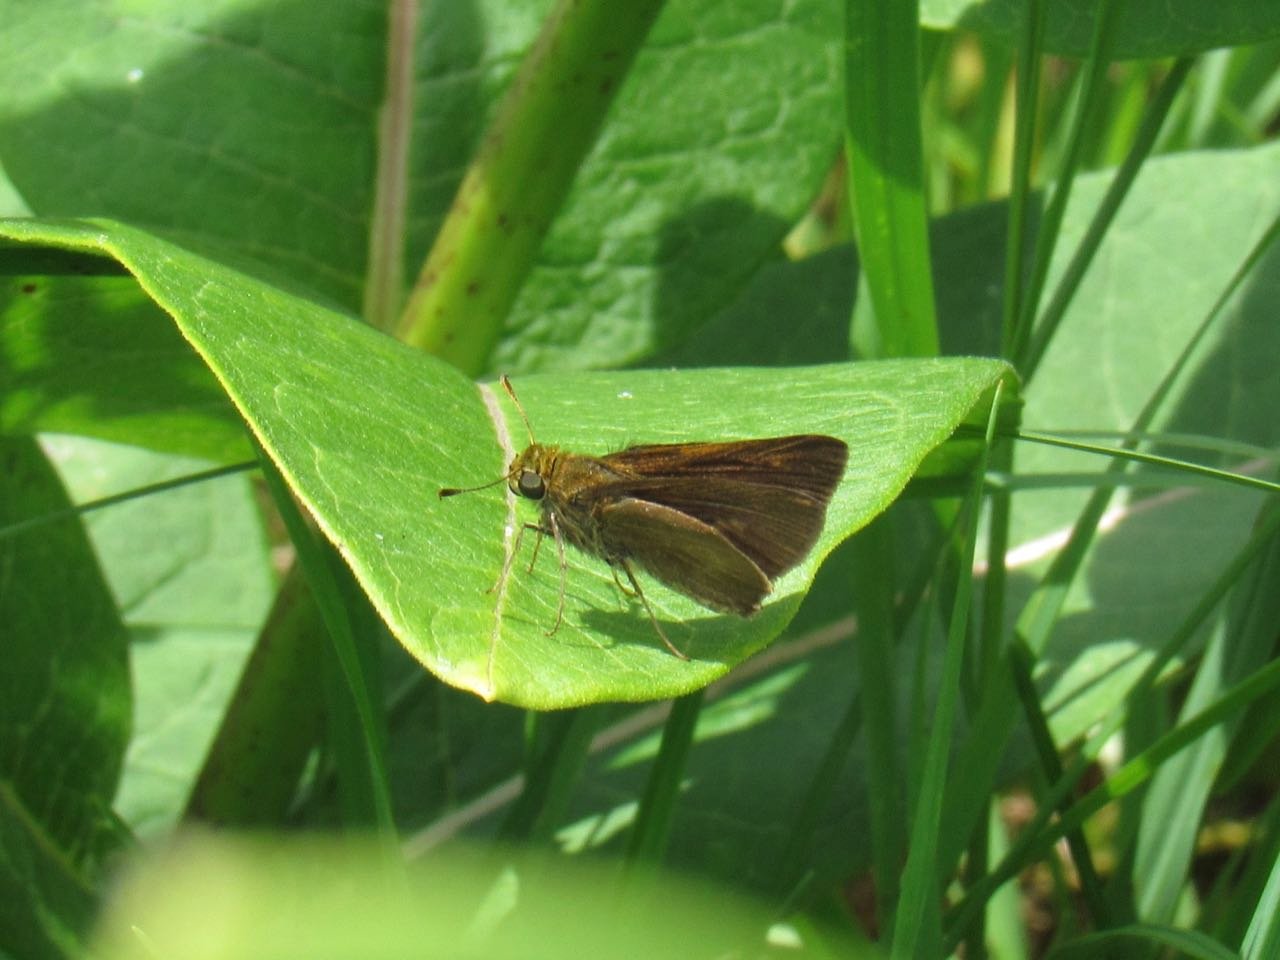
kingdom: Animalia
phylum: Arthropoda
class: Insecta
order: Lepidoptera
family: Hesperiidae
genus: Polites
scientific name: Polites egeremet
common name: Northern Broken-Dash
